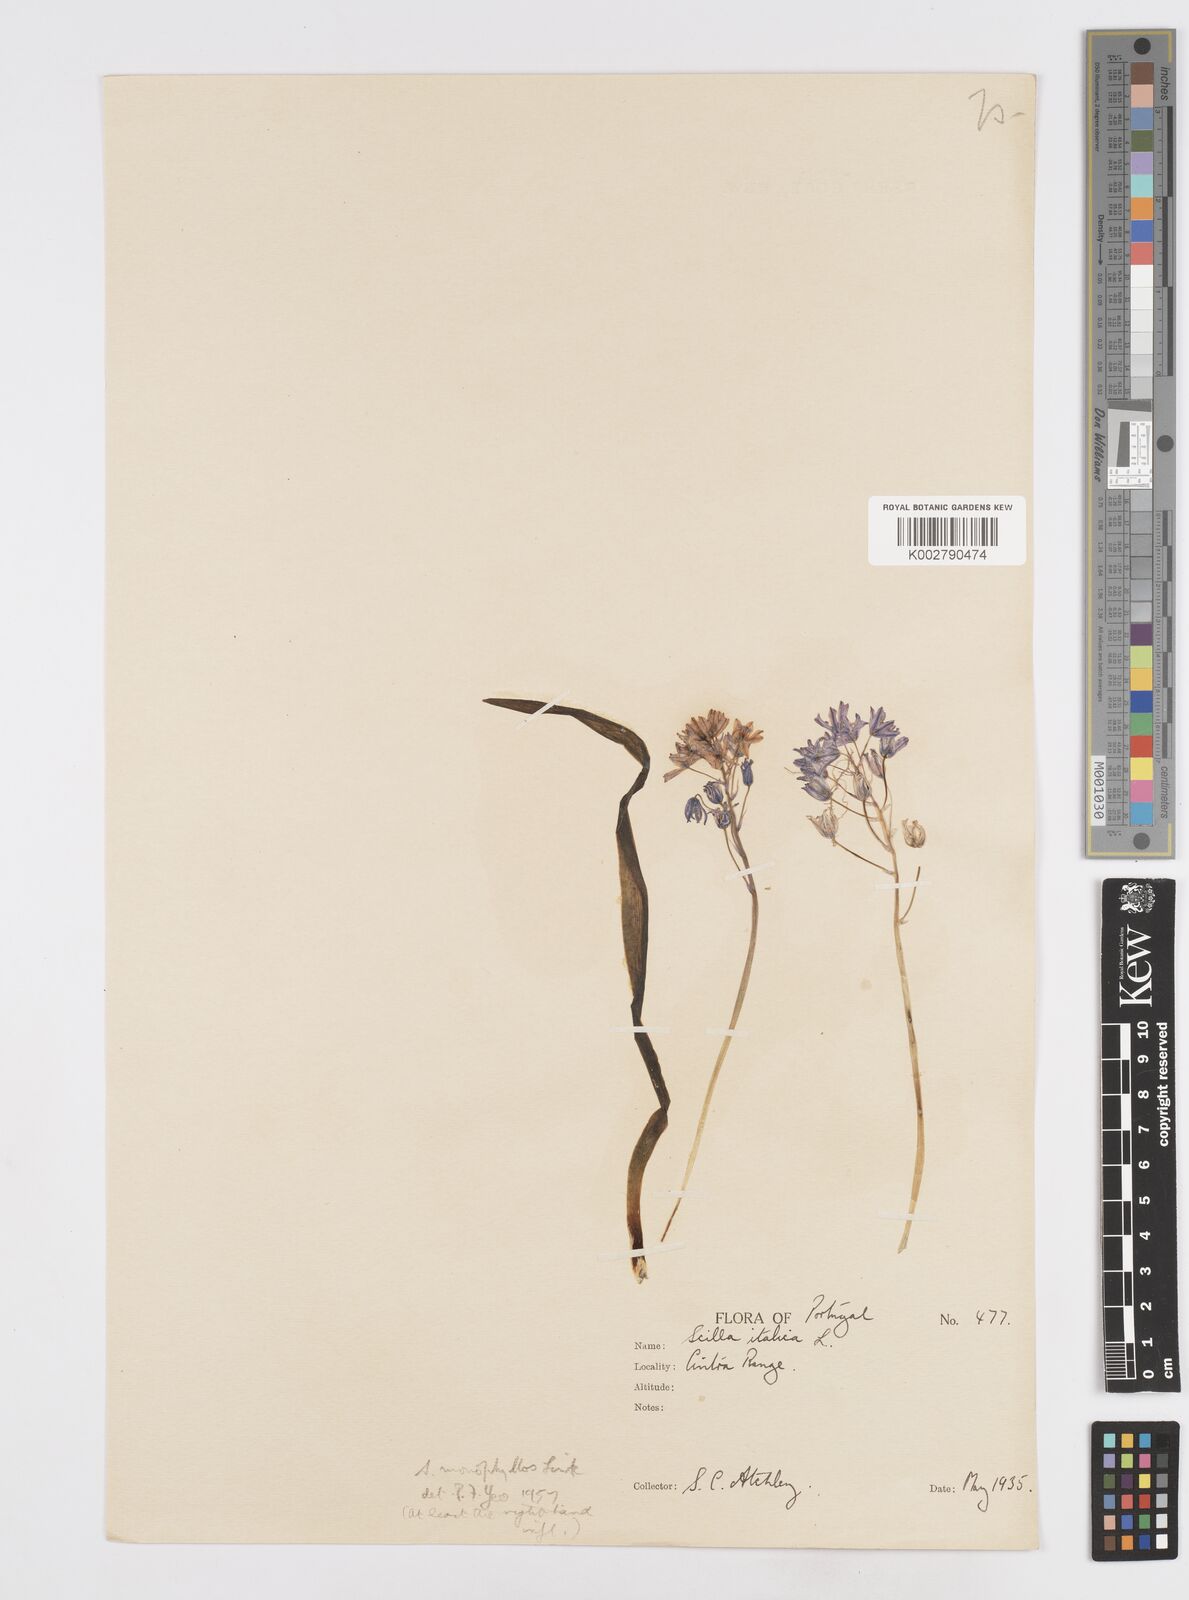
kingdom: Plantae
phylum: Tracheophyta
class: Liliopsida
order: Asparagales
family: Asparagaceae
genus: Scilla
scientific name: Scilla monophyllos
